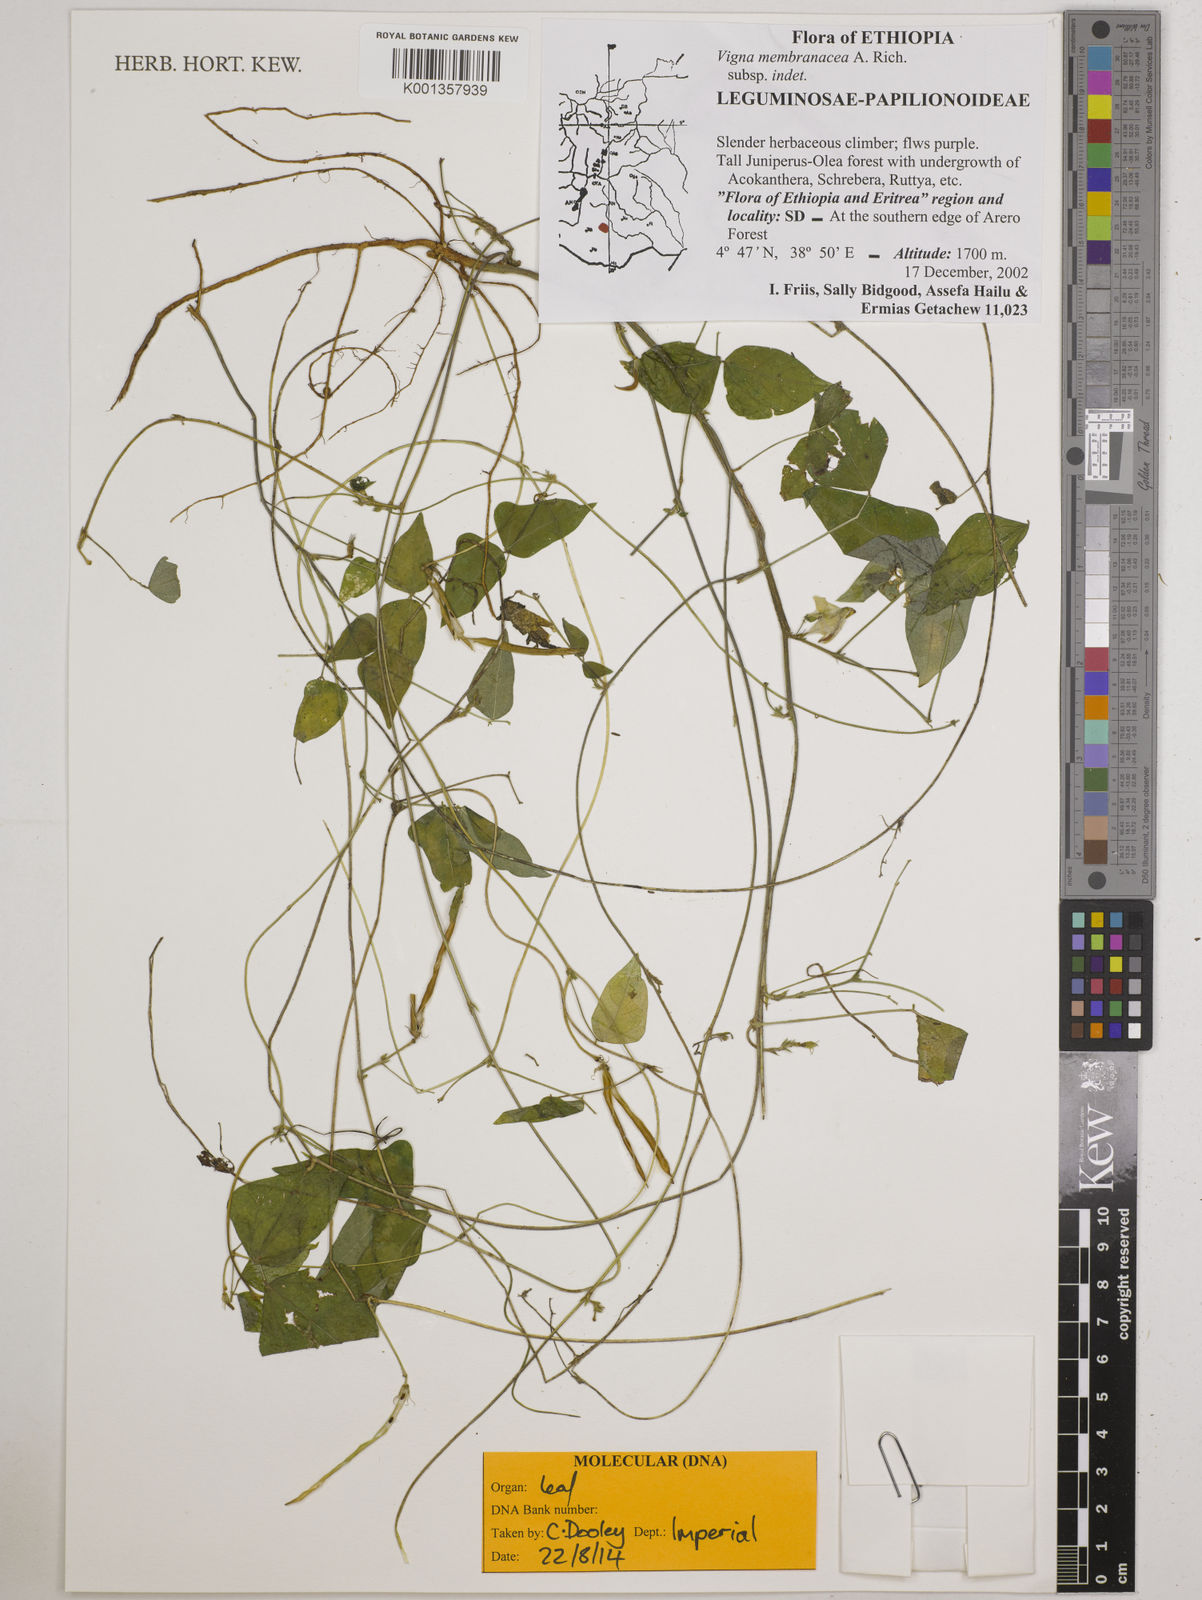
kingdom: Plantae
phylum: Tracheophyta
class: Magnoliopsida
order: Fabales
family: Fabaceae
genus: Vigna
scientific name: Vigna membranacea
